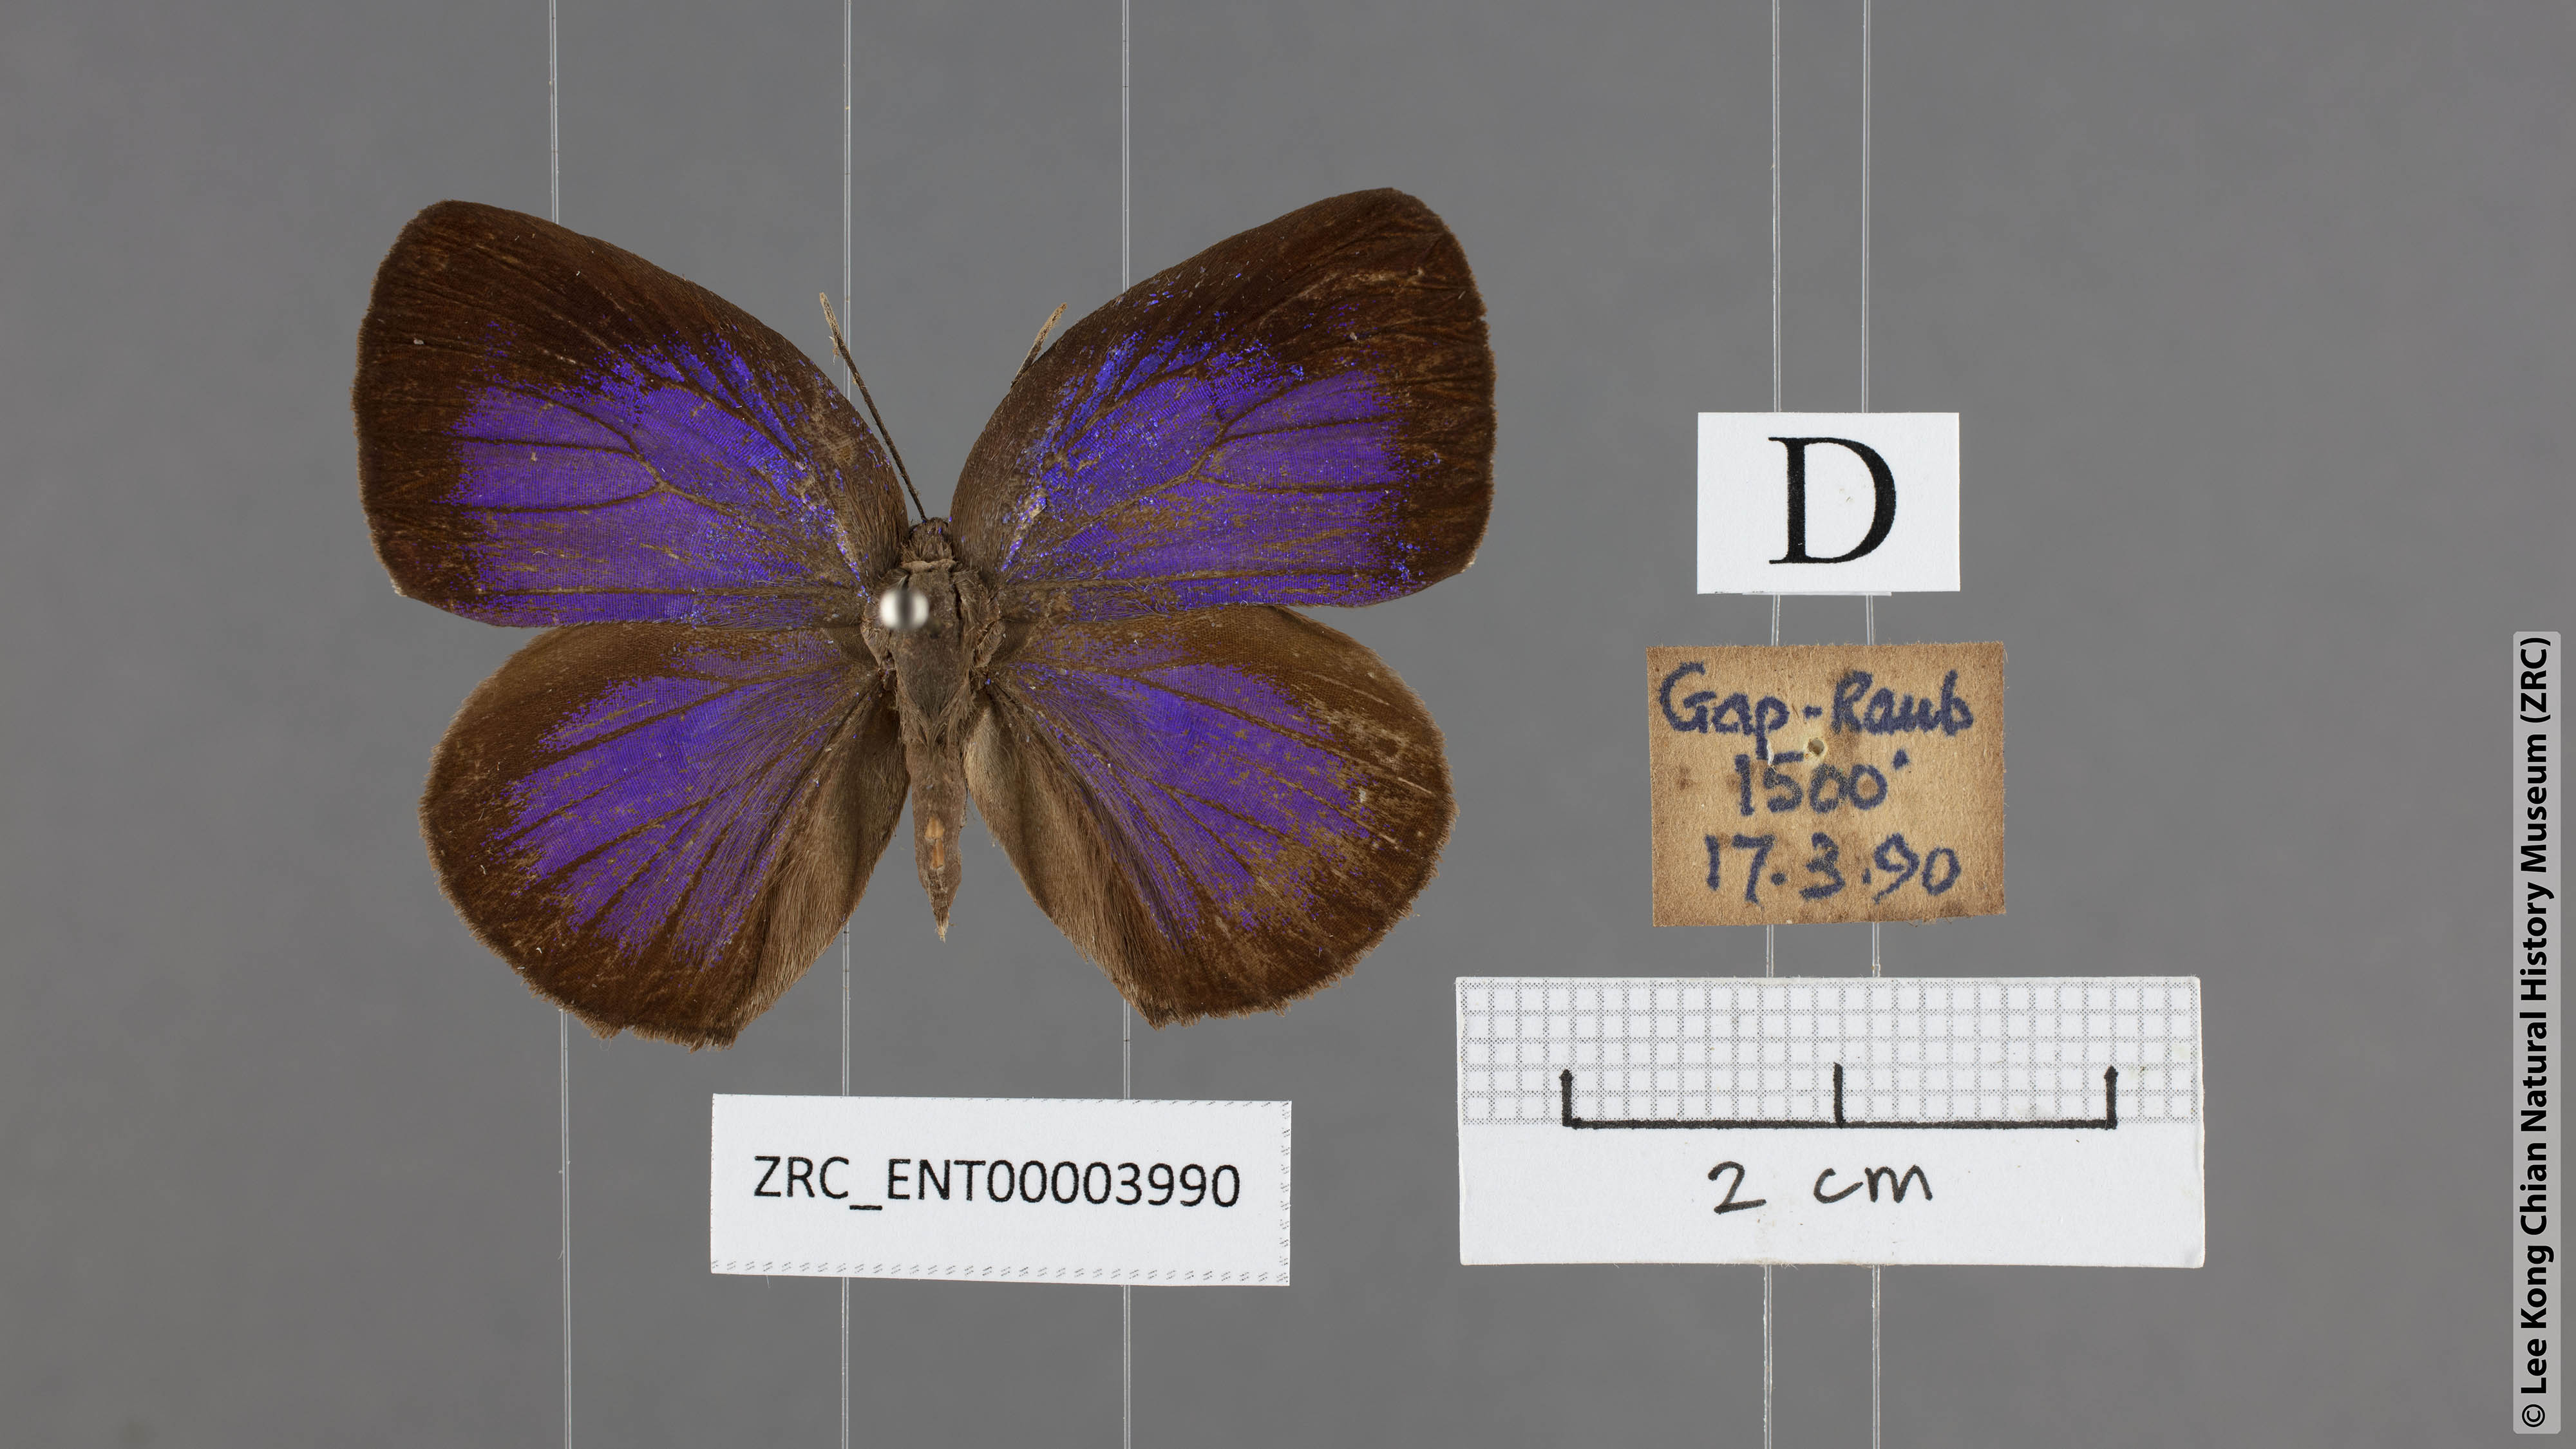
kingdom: Animalia
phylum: Arthropoda
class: Insecta
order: Lepidoptera
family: Lycaenidae
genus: Arhopala
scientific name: Arhopala major
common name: Major yellow oakblue
